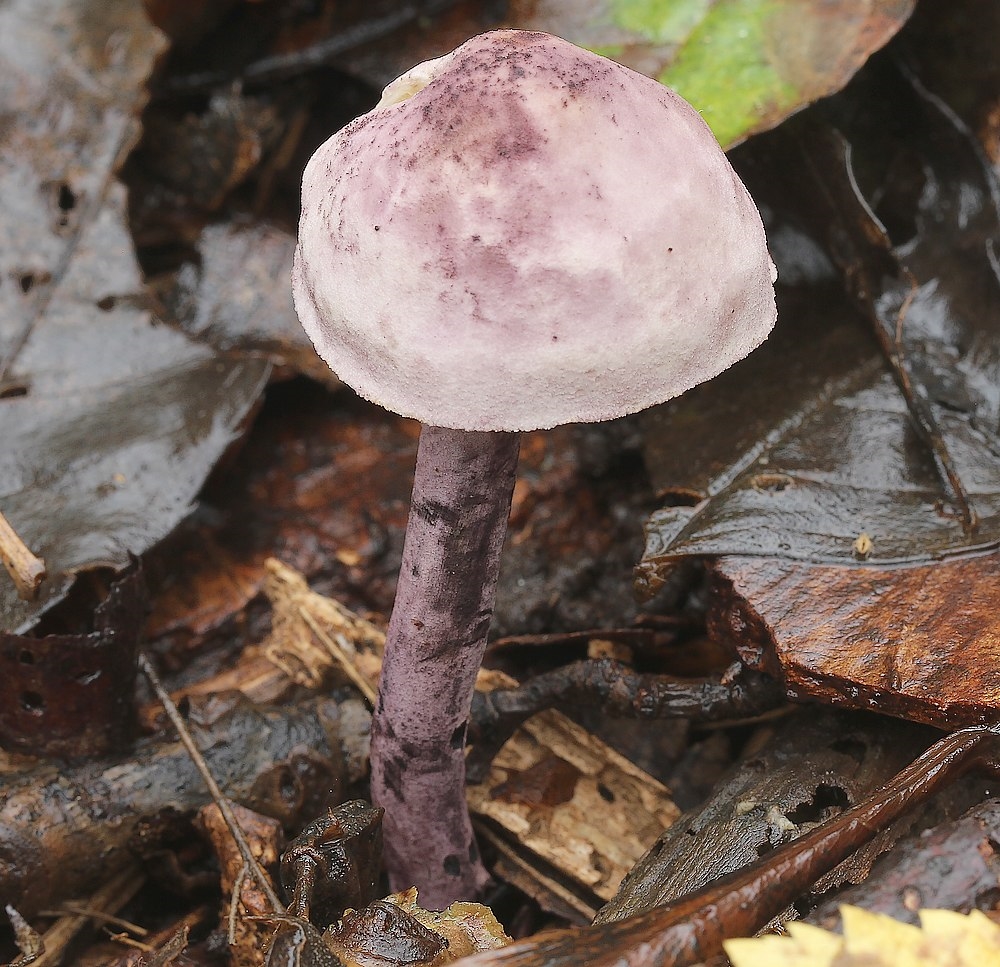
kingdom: Fungi
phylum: Basidiomycota
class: Agaricomycetes
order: Agaricales
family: Agaricaceae
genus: Cystolepiota
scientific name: Cystolepiota bucknallii
